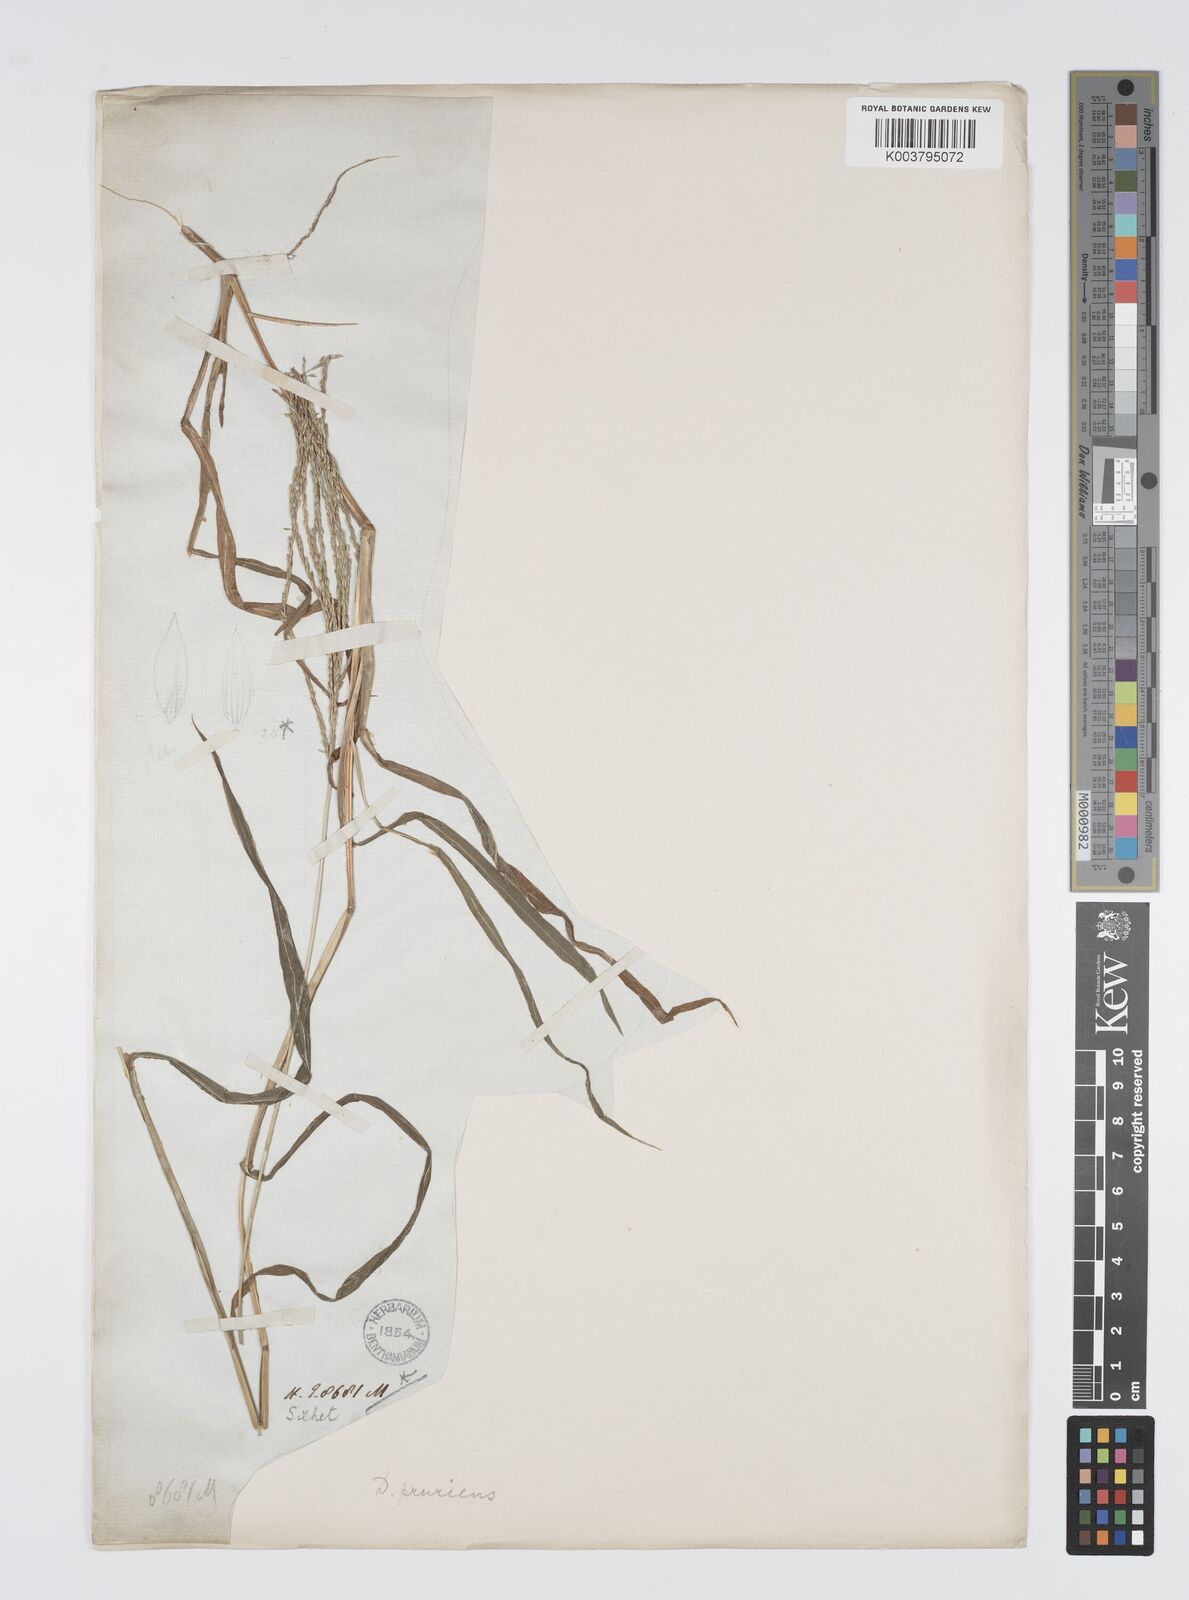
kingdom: Plantae
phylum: Tracheophyta
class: Liliopsida
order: Poales
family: Poaceae
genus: Digitaria
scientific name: Digitaria setigera
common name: East indian crabgrass
